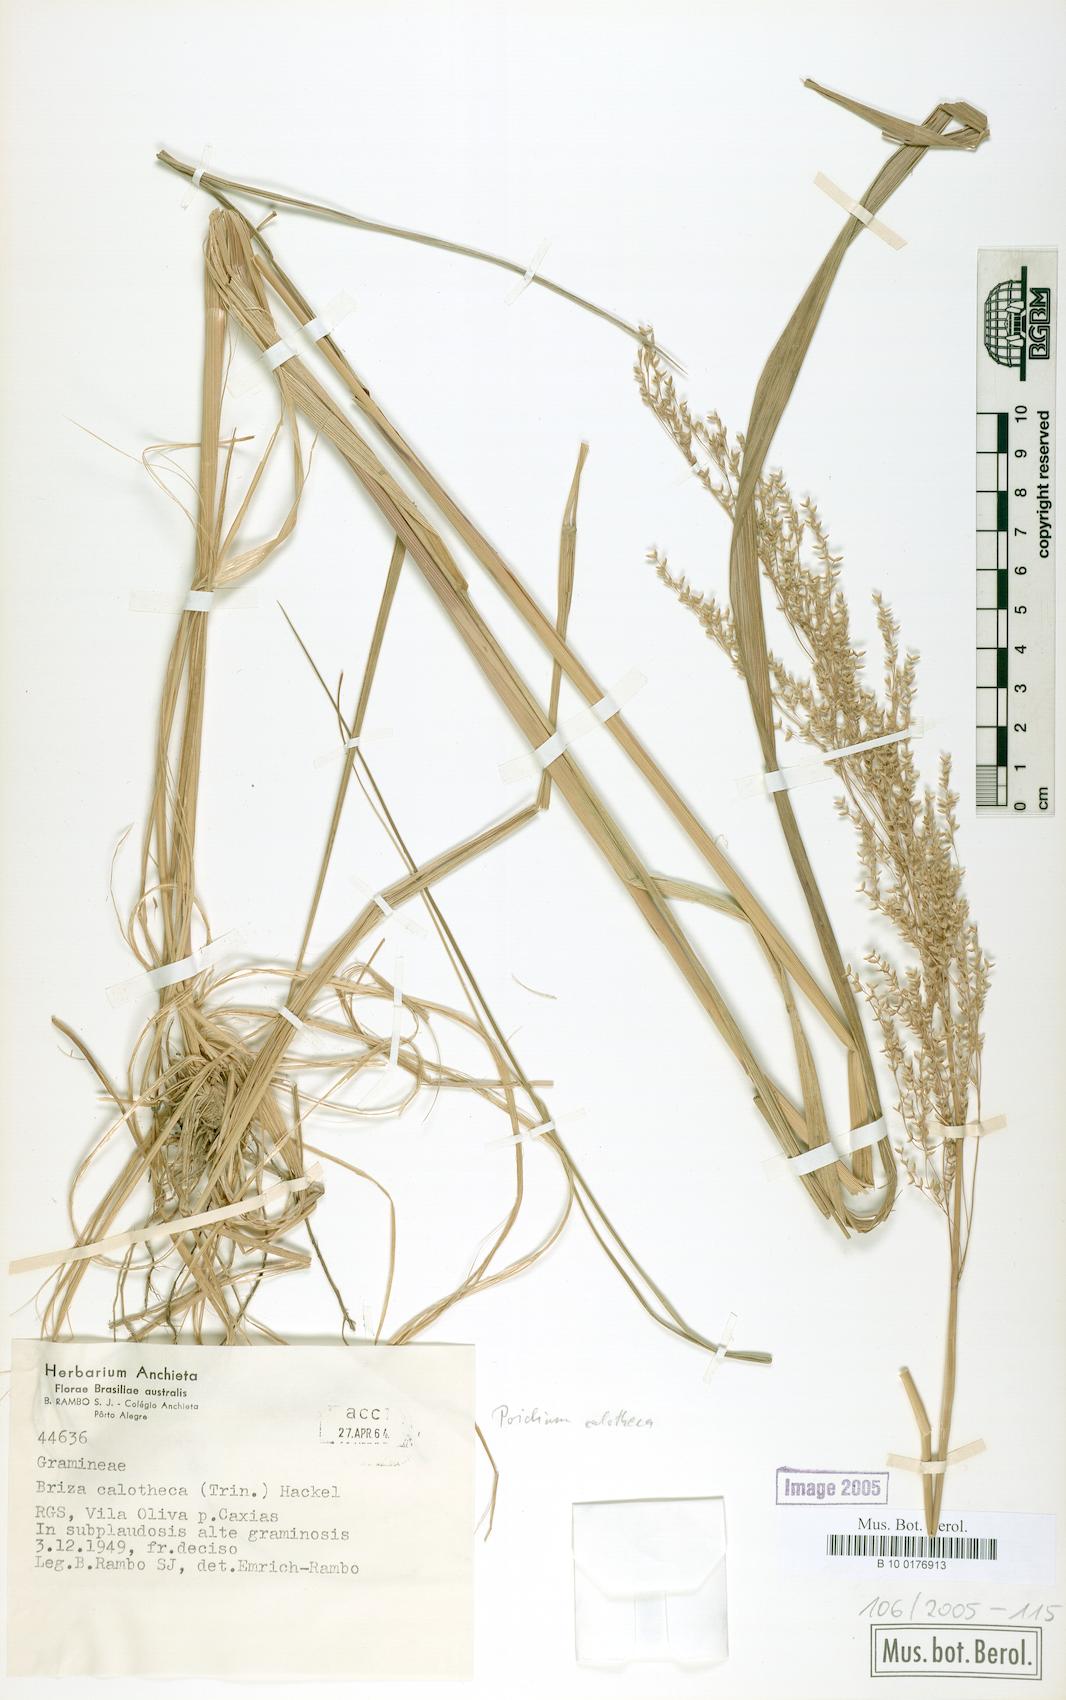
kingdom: Plantae
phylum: Tracheophyta
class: Liliopsida
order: Poales
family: Poaceae
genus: Poidium
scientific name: Poidium calotheca
